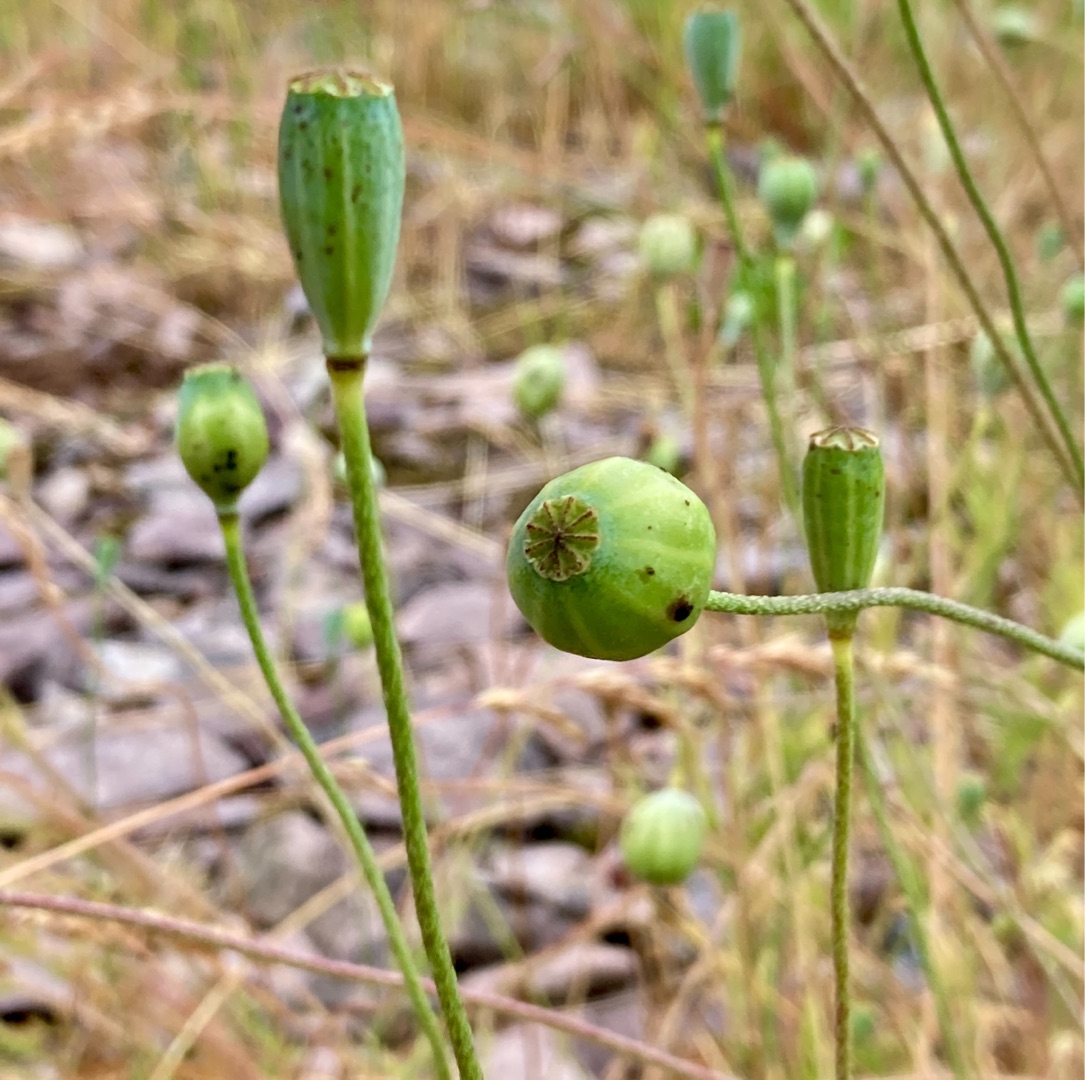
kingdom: Animalia
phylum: Arthropoda
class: Insecta
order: Hymenoptera
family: Cynipidae
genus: Aylax
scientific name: Aylax papaveris
